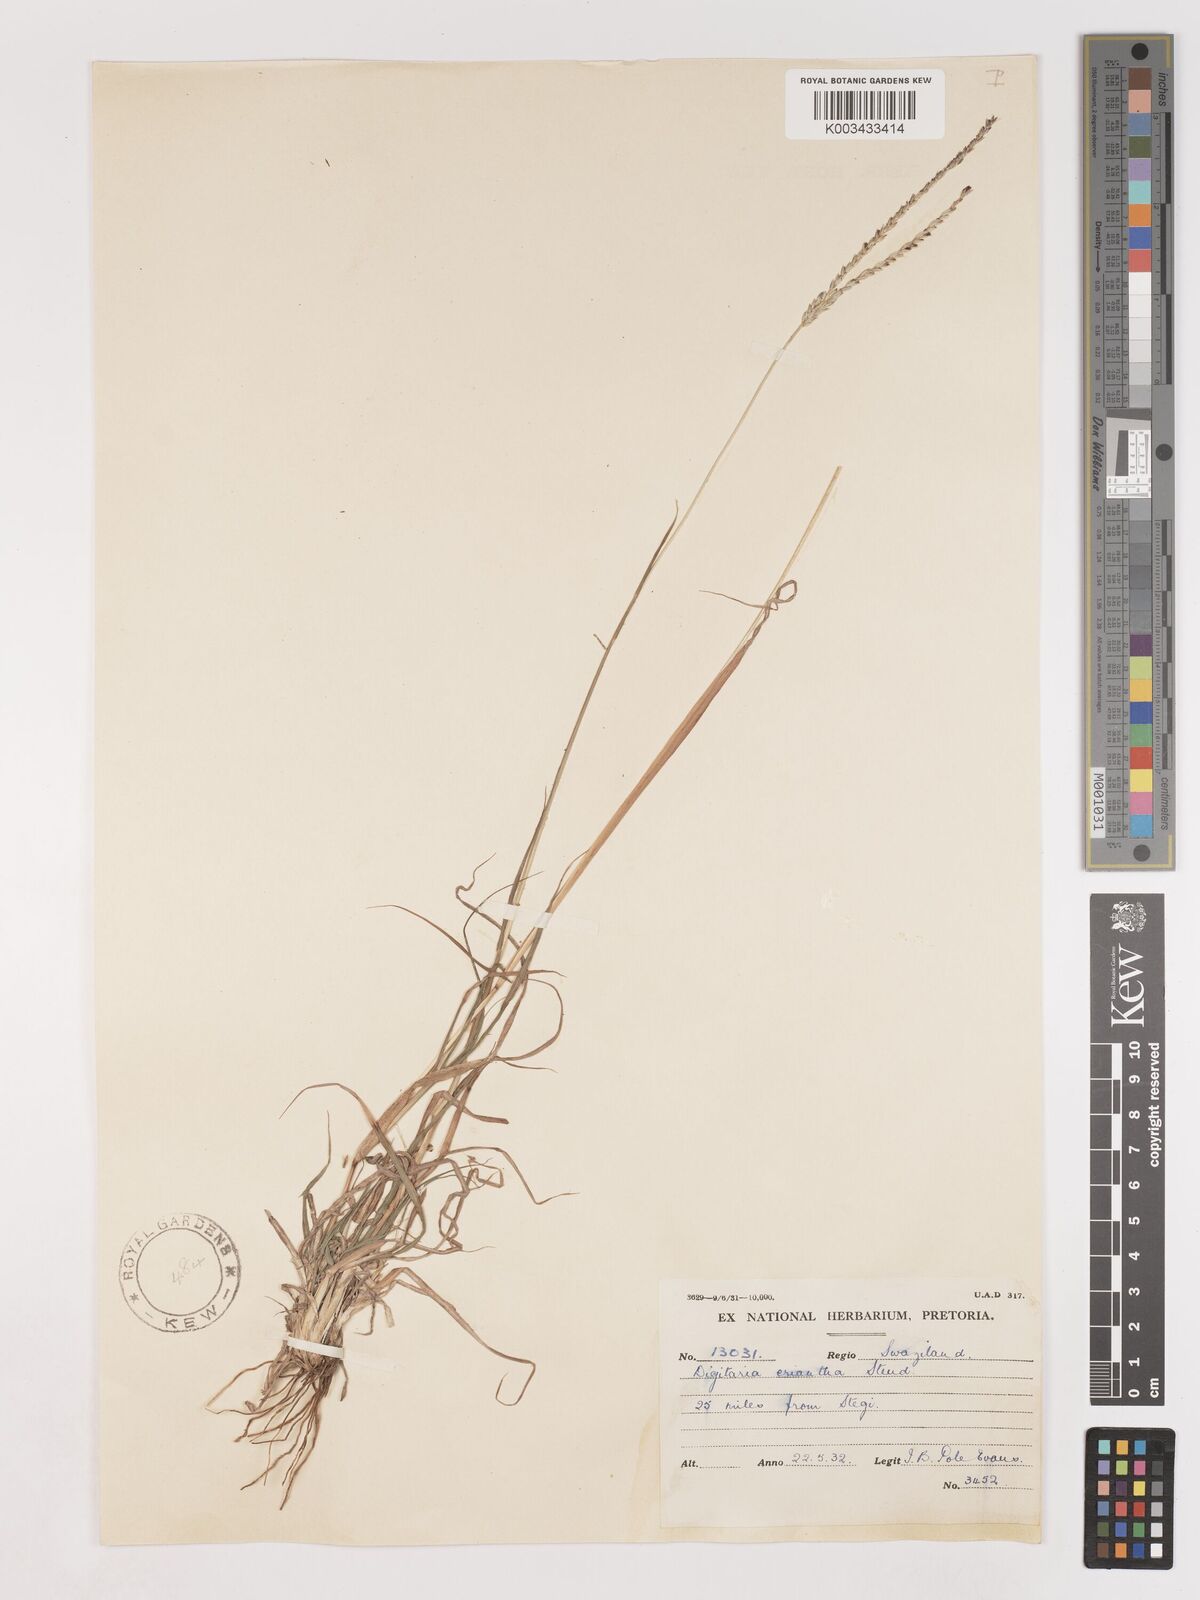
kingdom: Plantae
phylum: Tracheophyta
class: Liliopsida
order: Poales
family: Poaceae
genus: Digitaria
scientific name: Digitaria eriantha
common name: Digitgrass
